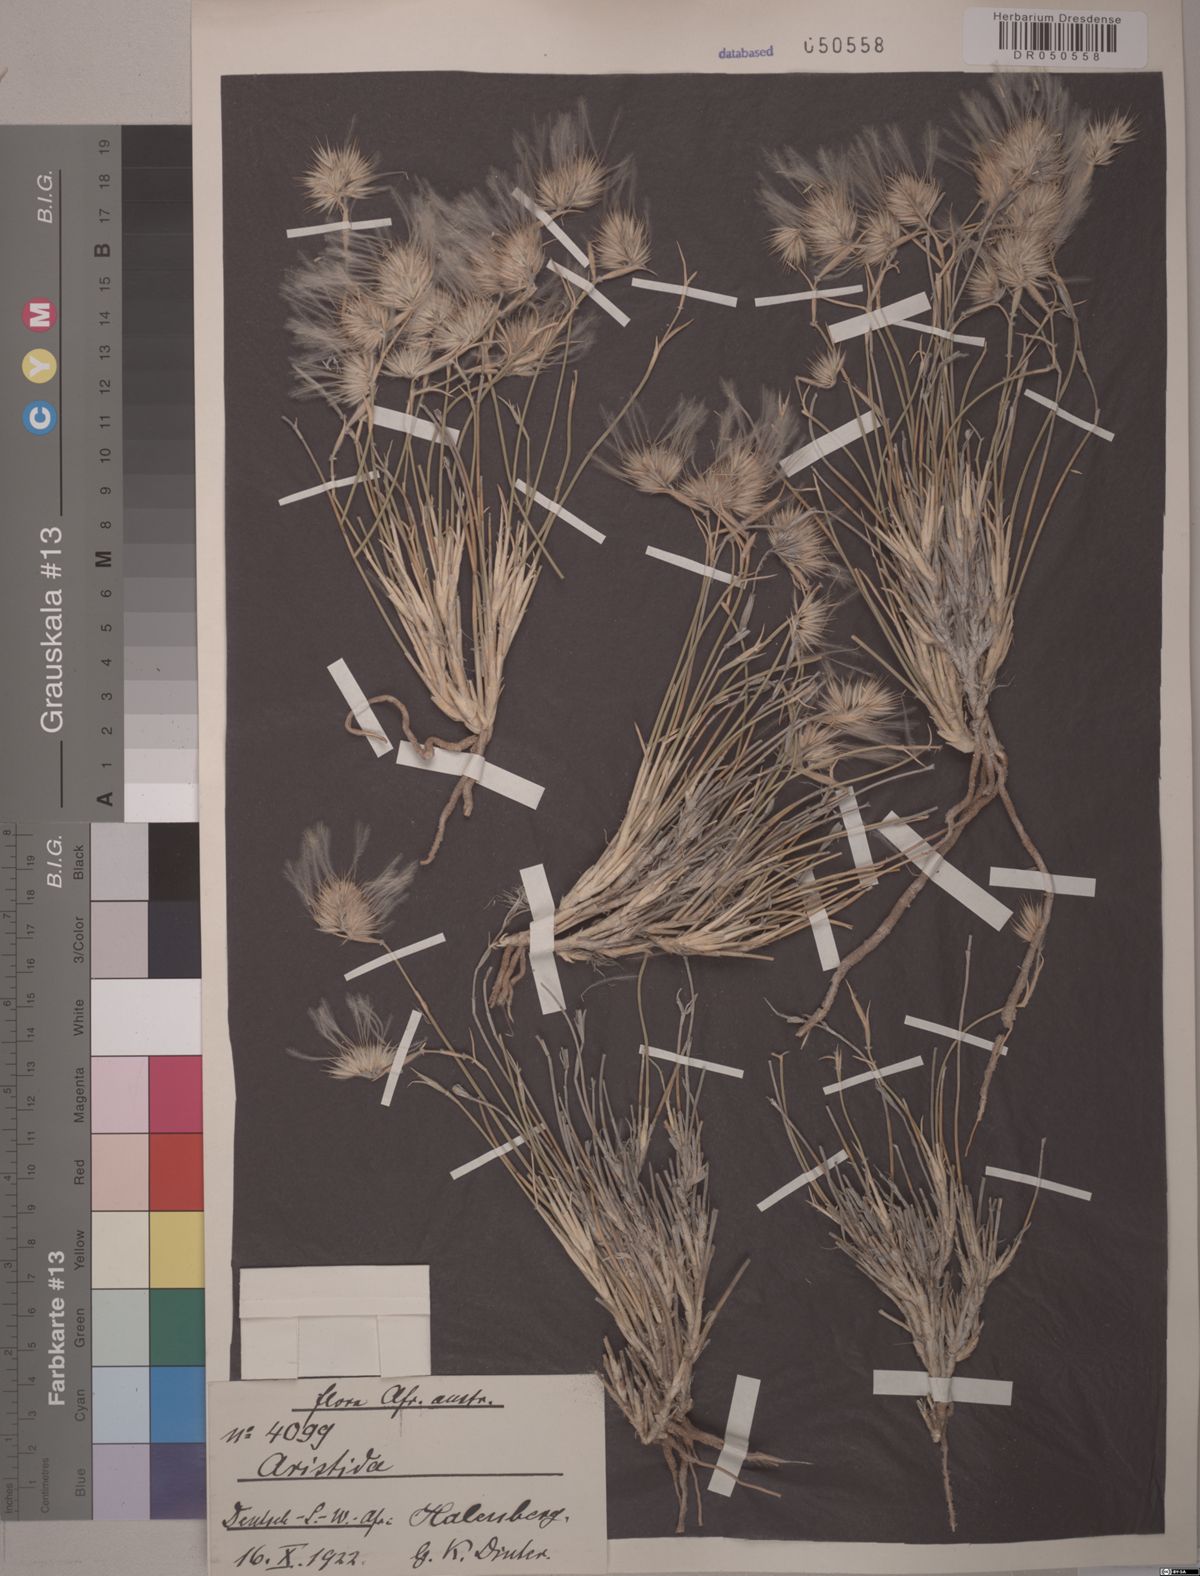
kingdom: Plantae
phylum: Tracheophyta
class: Liliopsida
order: Poales
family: Poaceae
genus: Stipagrostis
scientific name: Stipagrostis geminifolia
